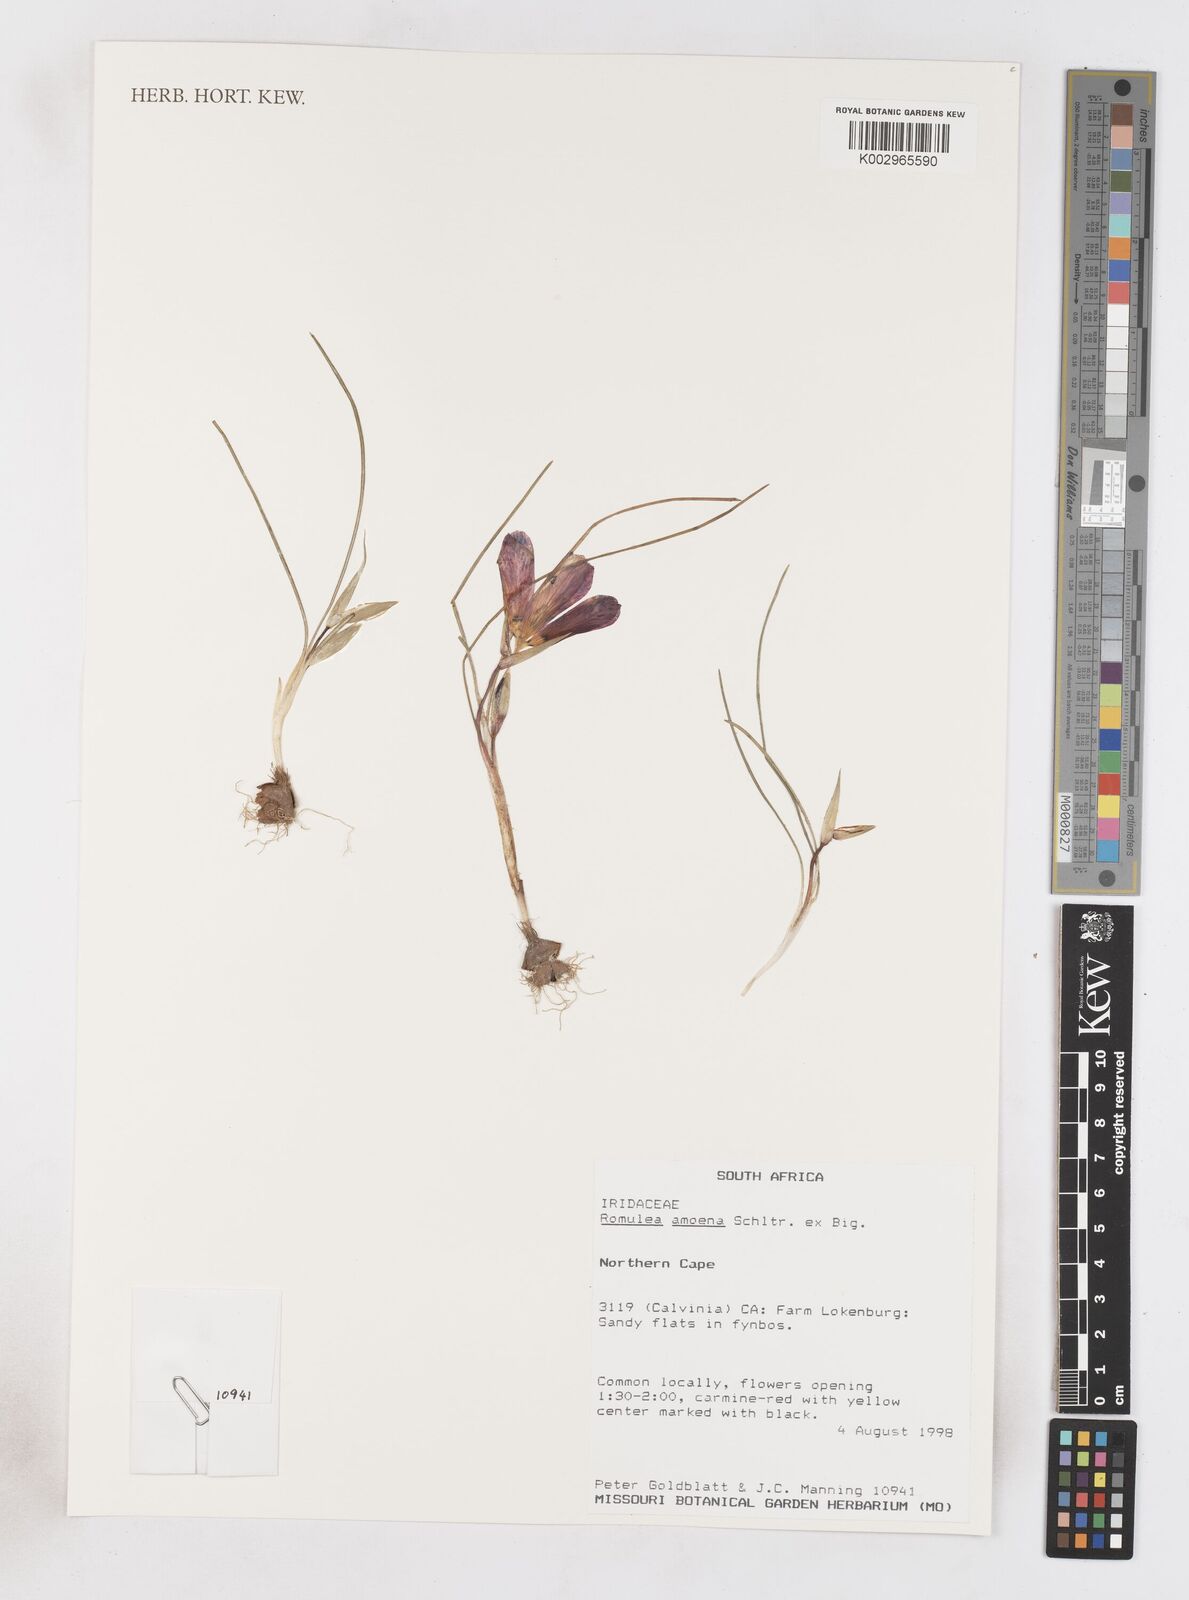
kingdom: Plantae
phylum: Tracheophyta
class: Liliopsida
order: Asparagales
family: Iridaceae
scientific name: Iridaceae
